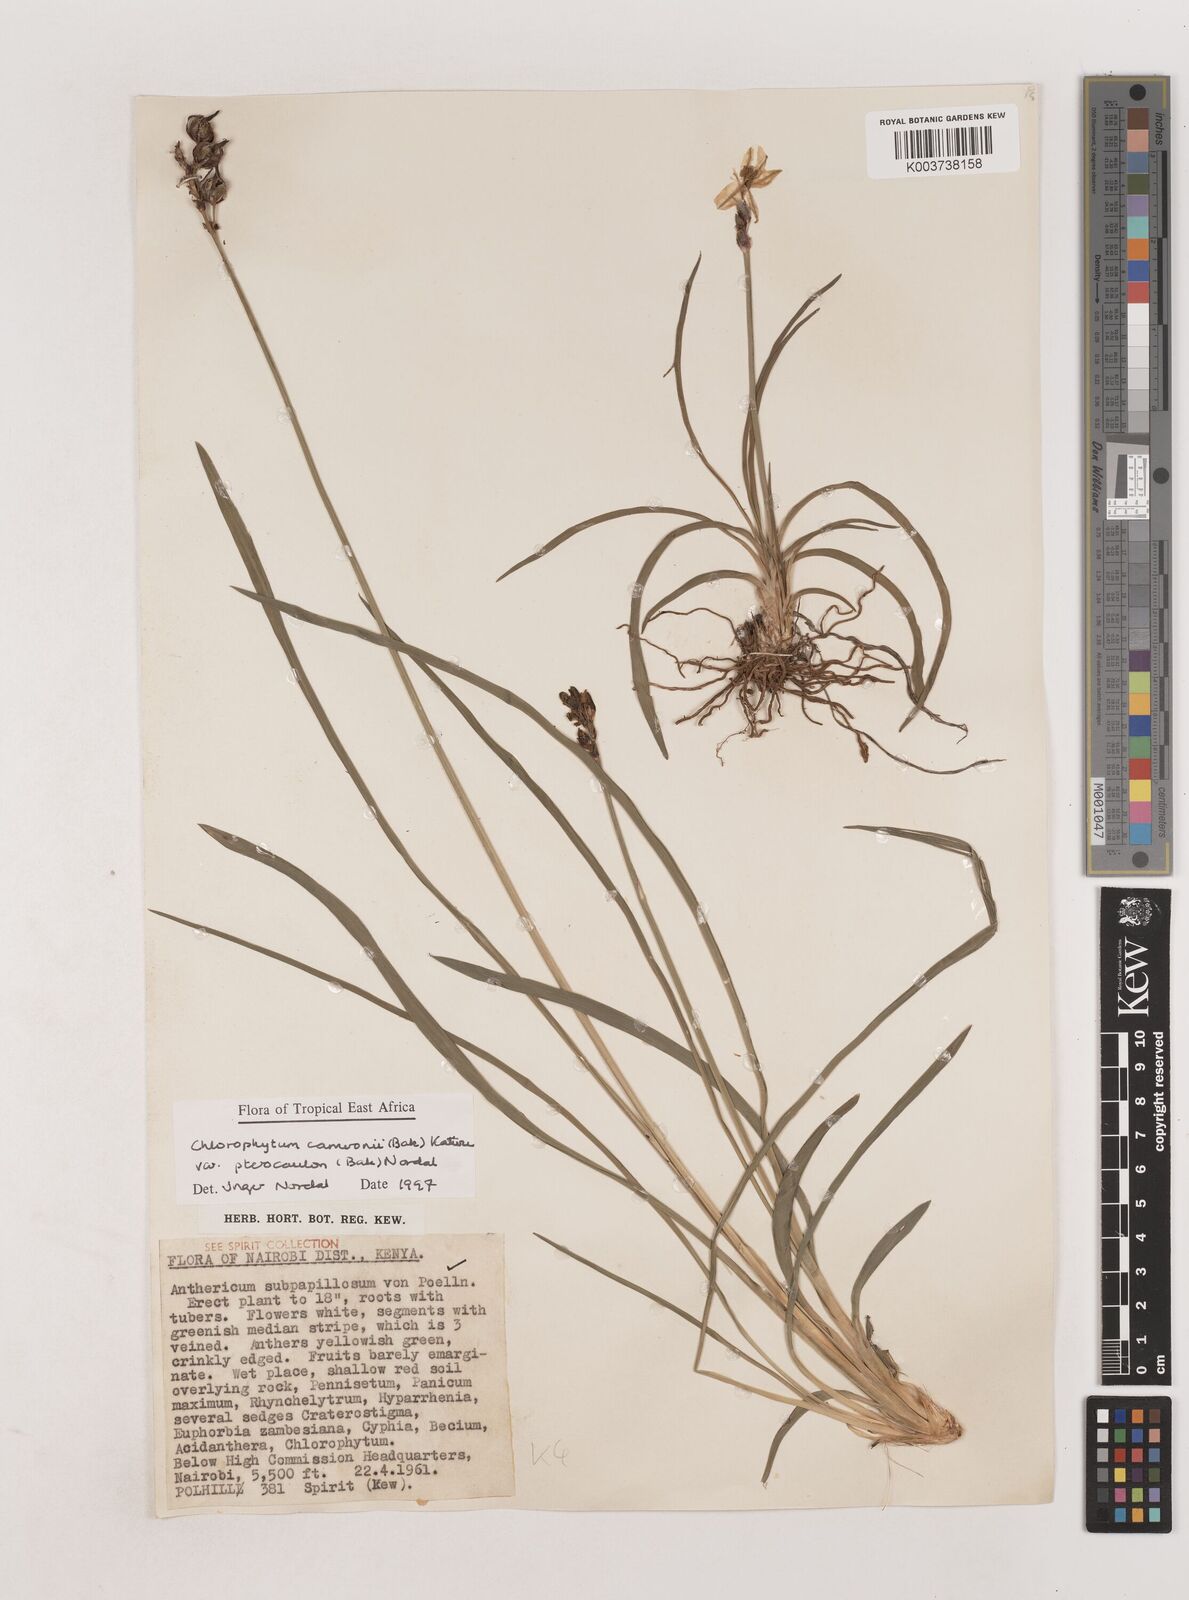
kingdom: Plantae
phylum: Tracheophyta
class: Liliopsida
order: Asparagales
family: Asparagaceae
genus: Chlorophytum
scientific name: Chlorophytum cameronii
